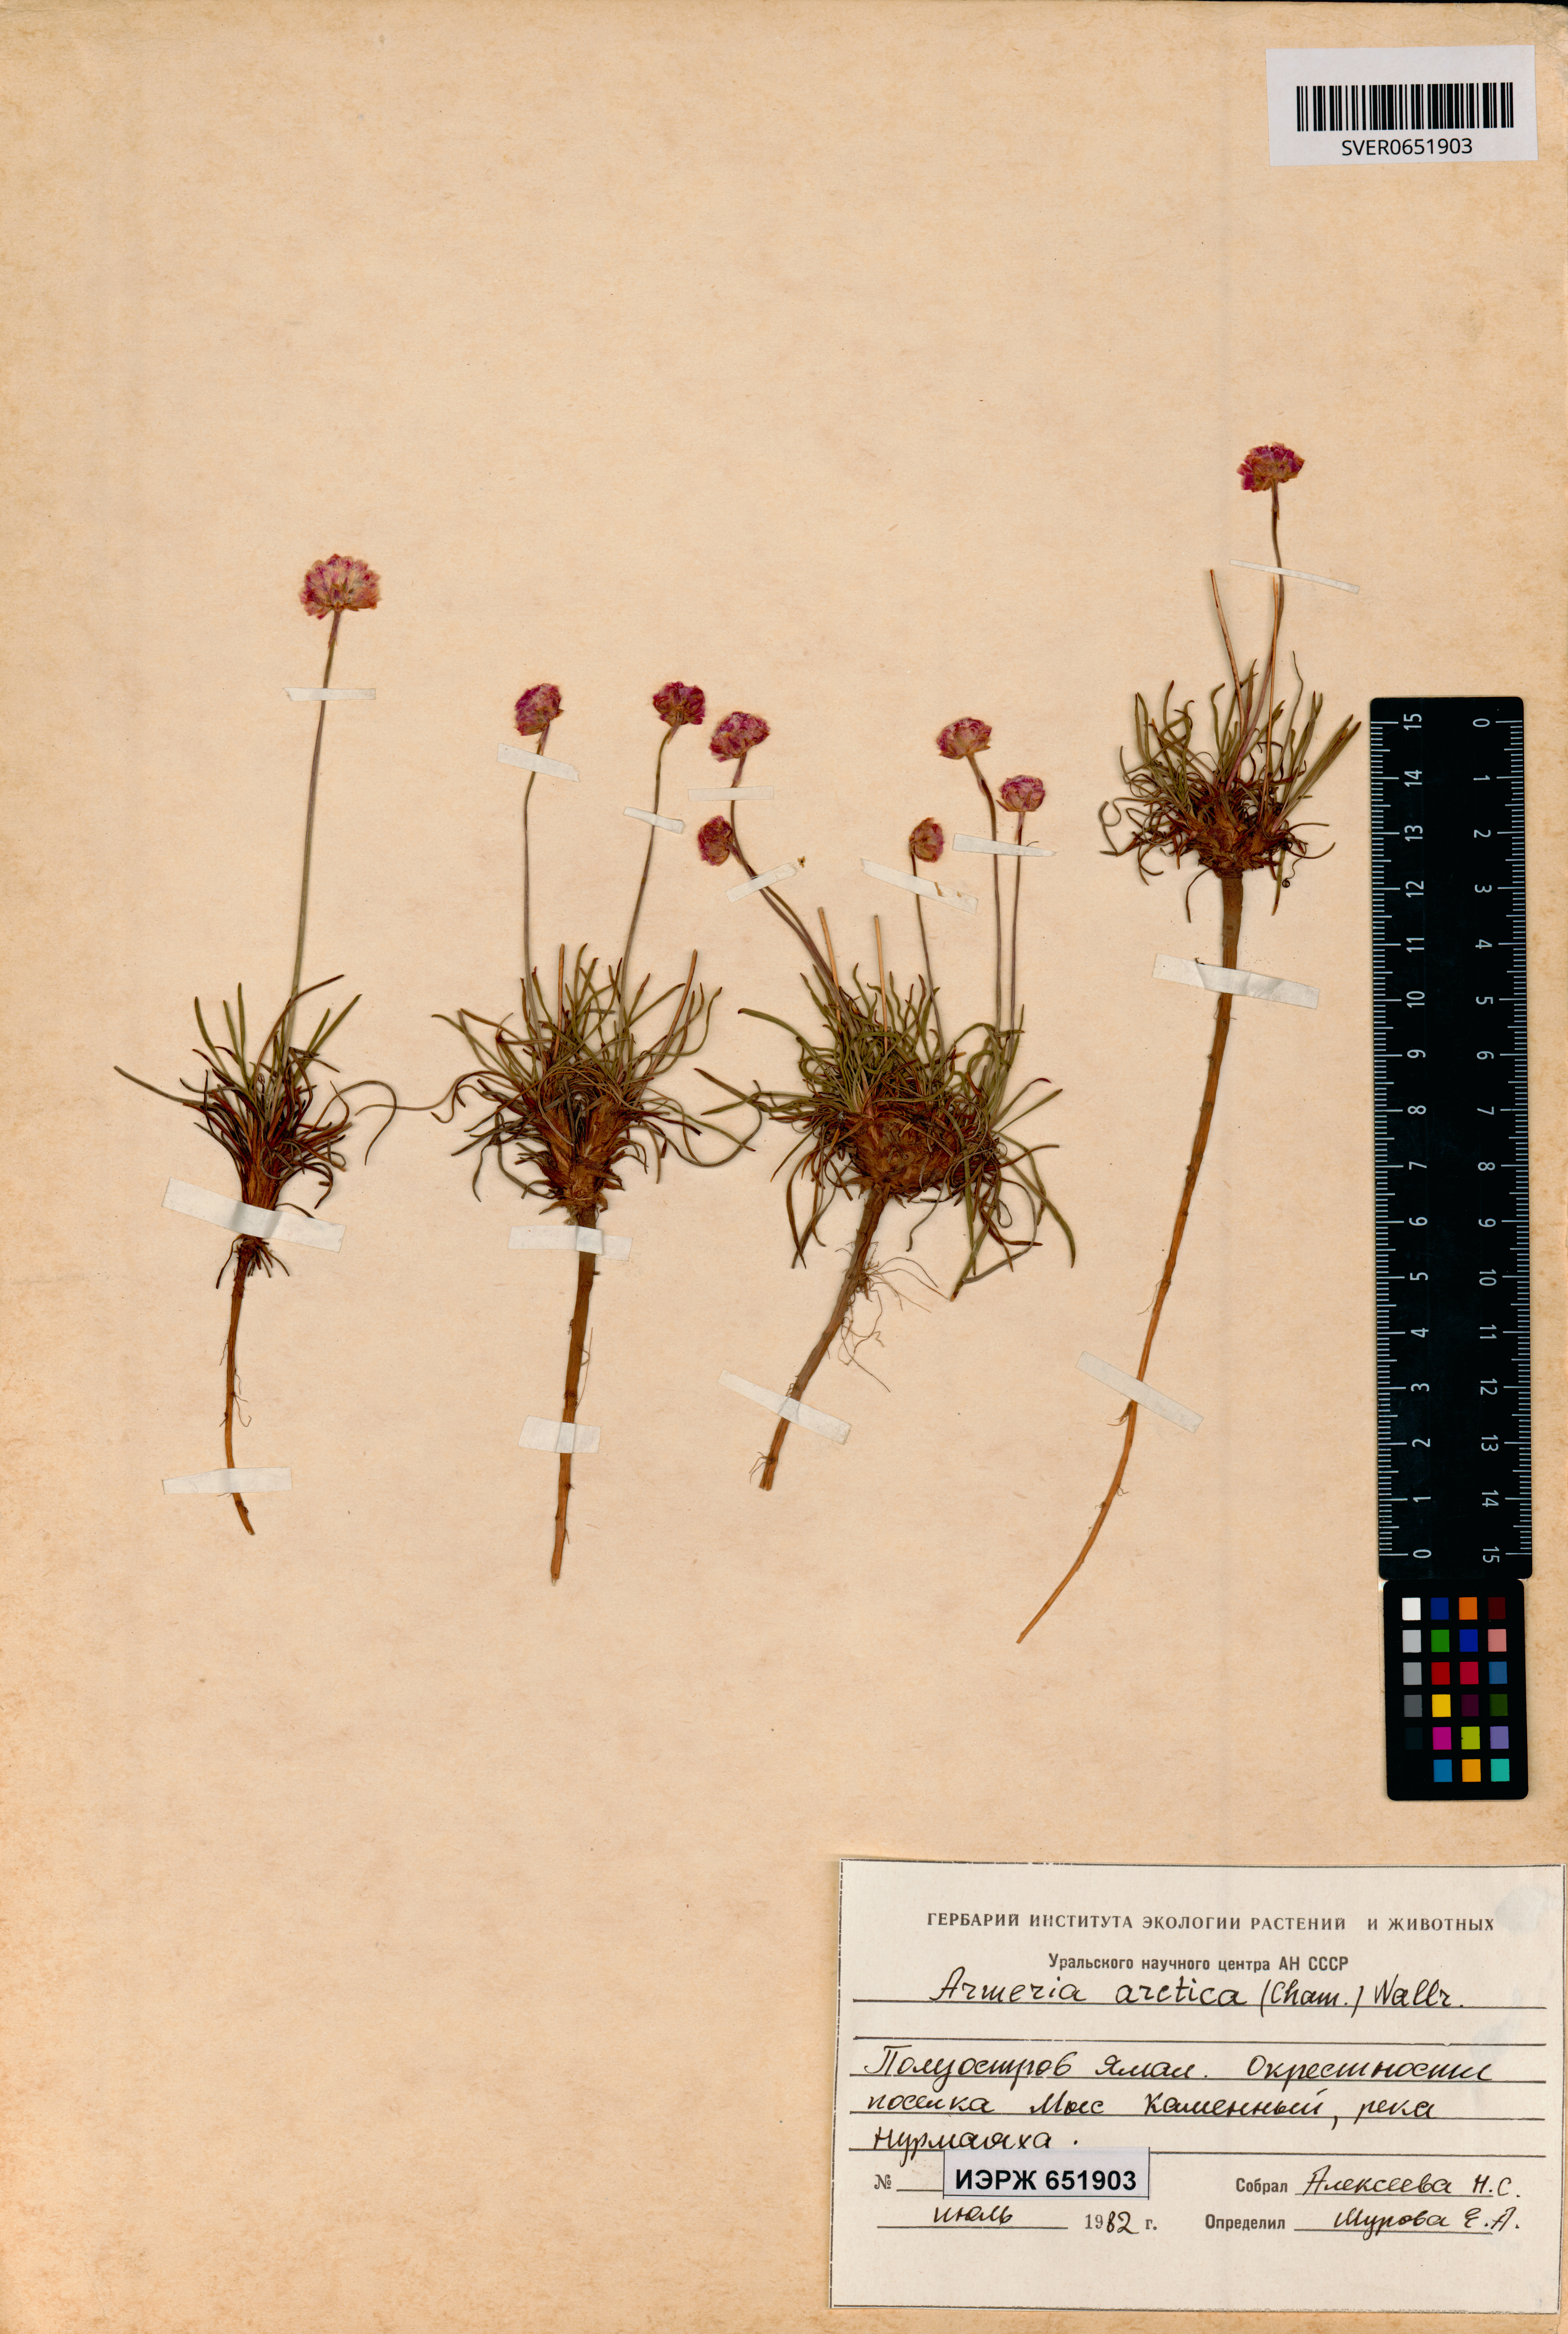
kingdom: Plantae
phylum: Tracheophyta
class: Magnoliopsida
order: Caryophyllales
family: Plumbaginaceae
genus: Armeria
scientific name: Armeria maritima
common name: Thrift
